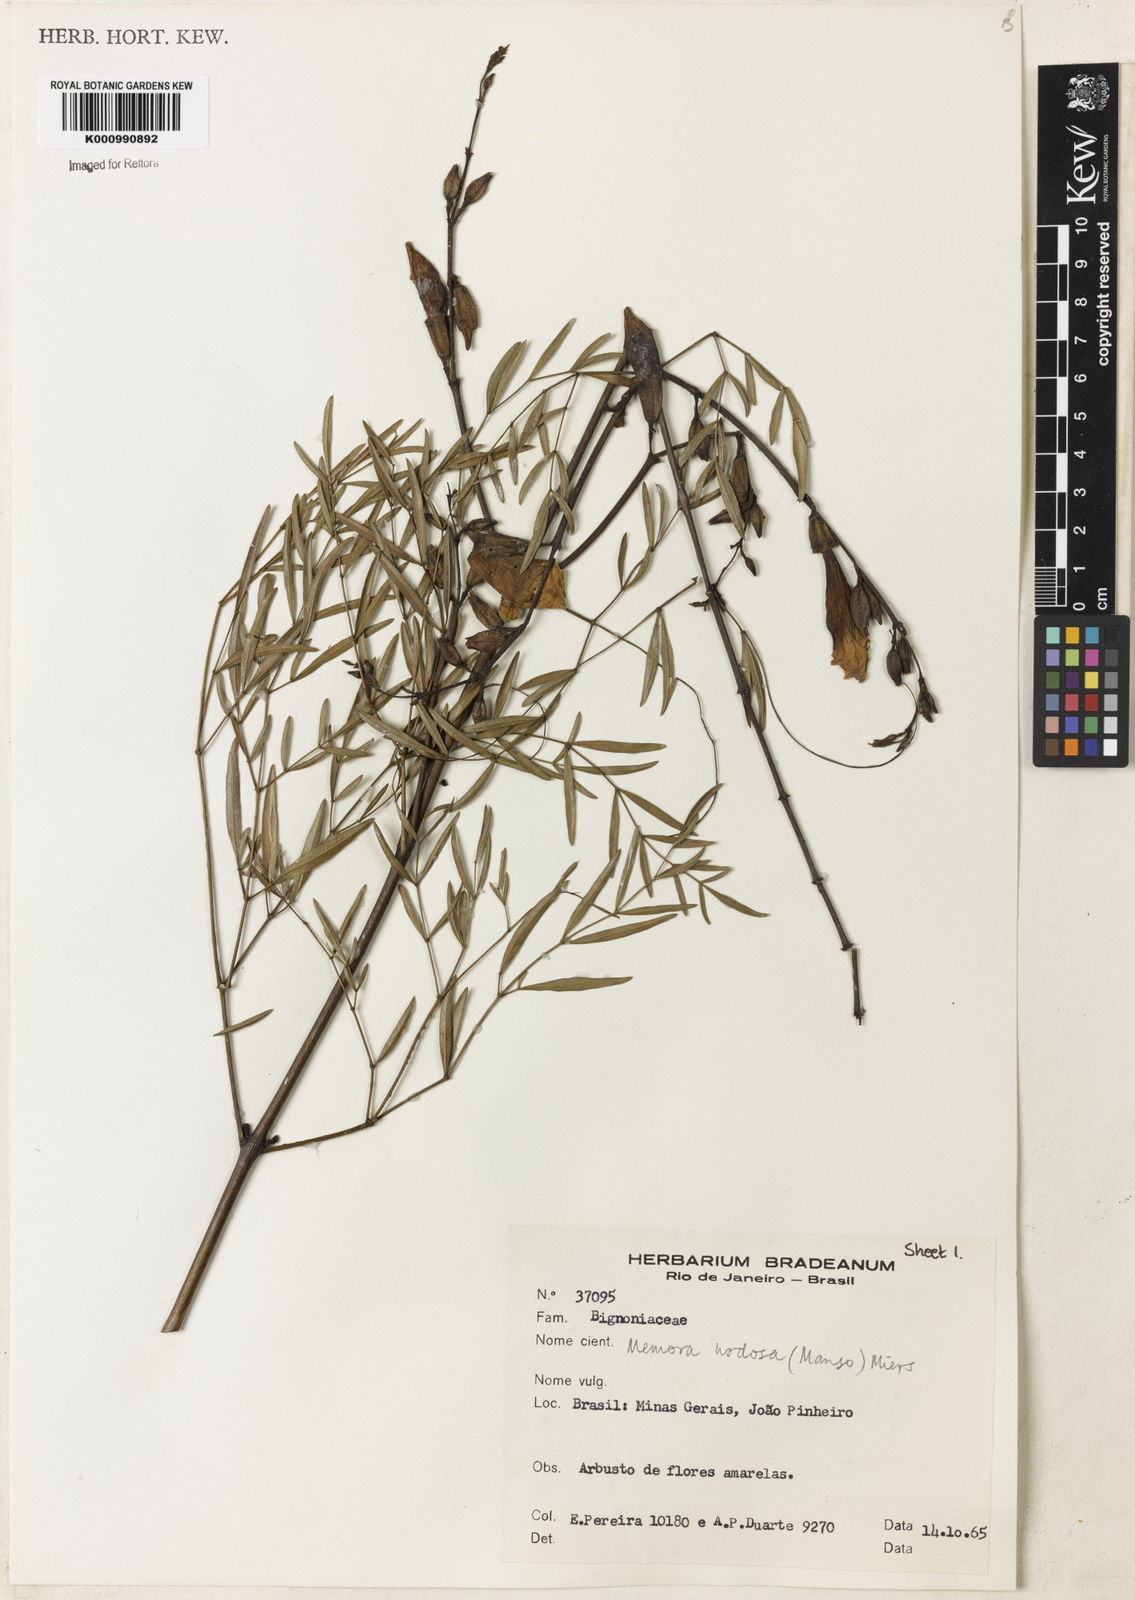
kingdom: Plantae
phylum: Tracheophyta
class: Magnoliopsida
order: Lamiales
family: Bignoniaceae
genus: Adenocalymma
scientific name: Adenocalymma nodosum
